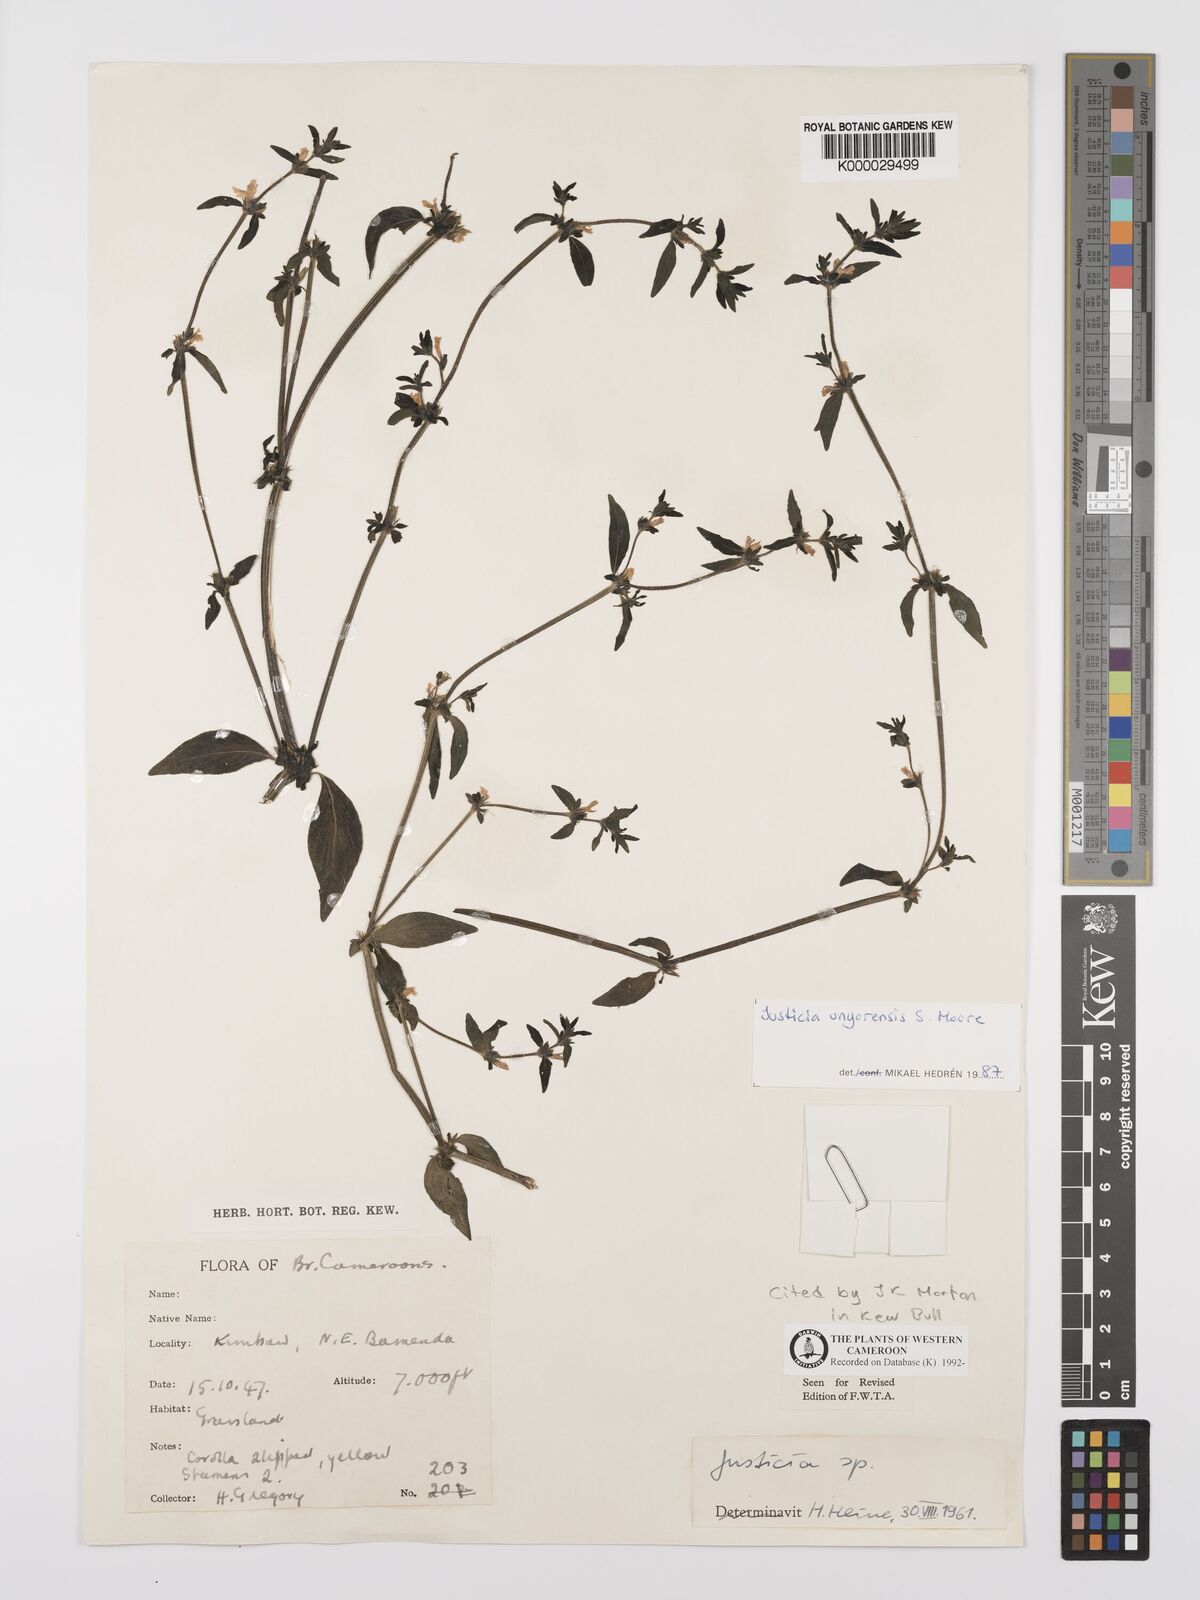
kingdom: Plantae
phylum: Tracheophyta
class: Magnoliopsida
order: Lamiales
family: Acanthaceae
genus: Justicia
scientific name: Justicia unyorensis
